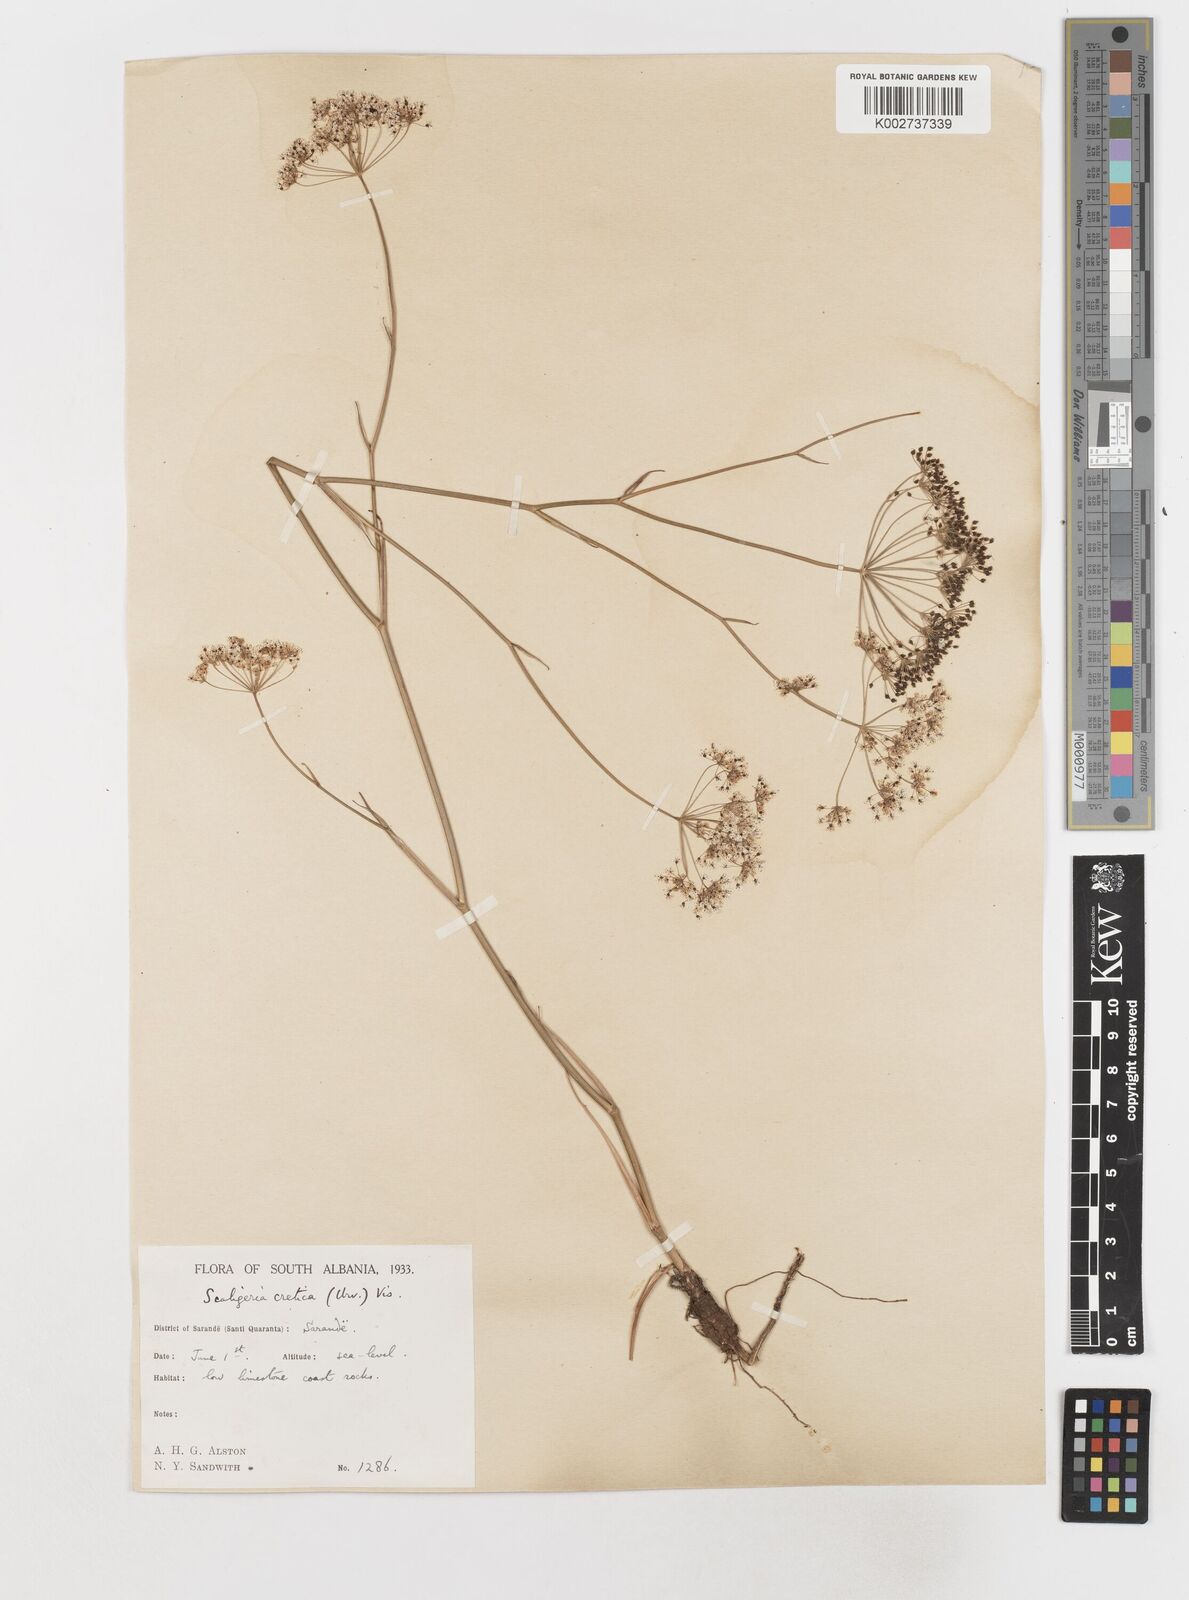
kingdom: Plantae
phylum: Tracheophyta
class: Magnoliopsida
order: Apiales
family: Apiaceae
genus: Scaligeria
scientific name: Scaligeria napiformis
